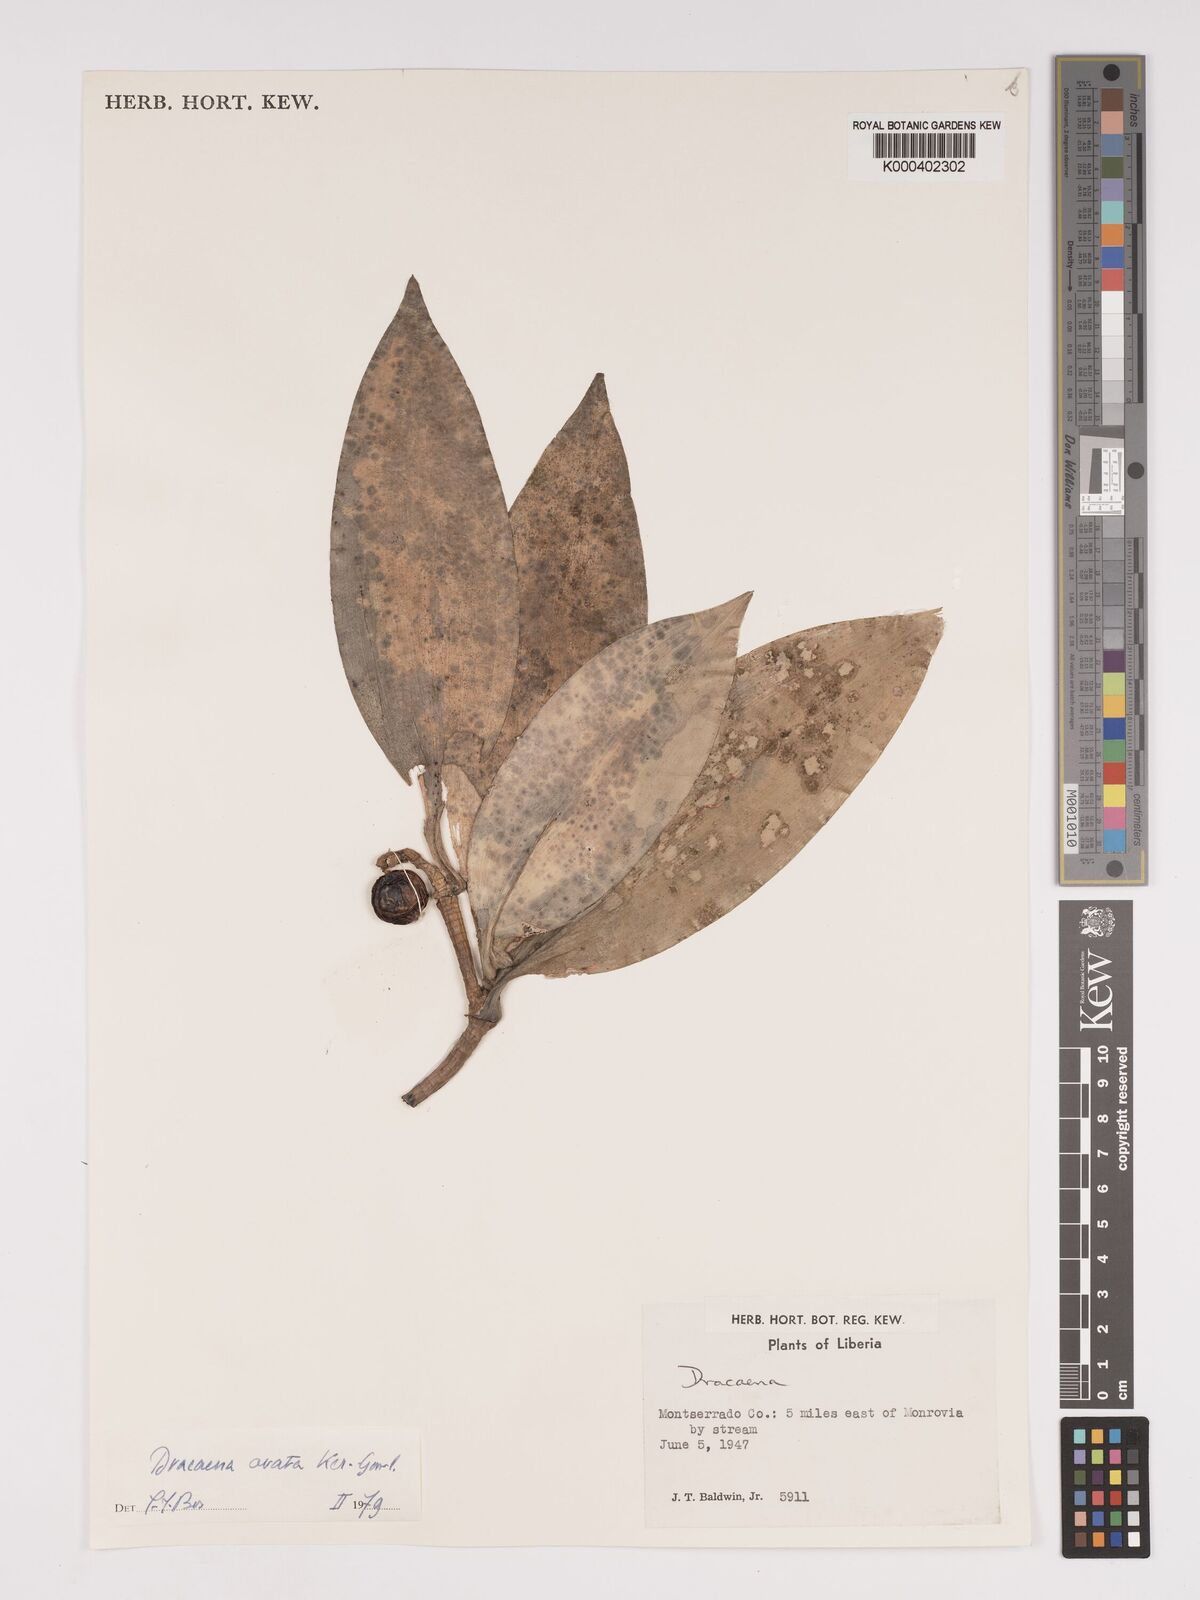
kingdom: Plantae
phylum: Tracheophyta
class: Liliopsida
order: Asparagales
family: Asparagaceae
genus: Dracaena
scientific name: Dracaena ovata
